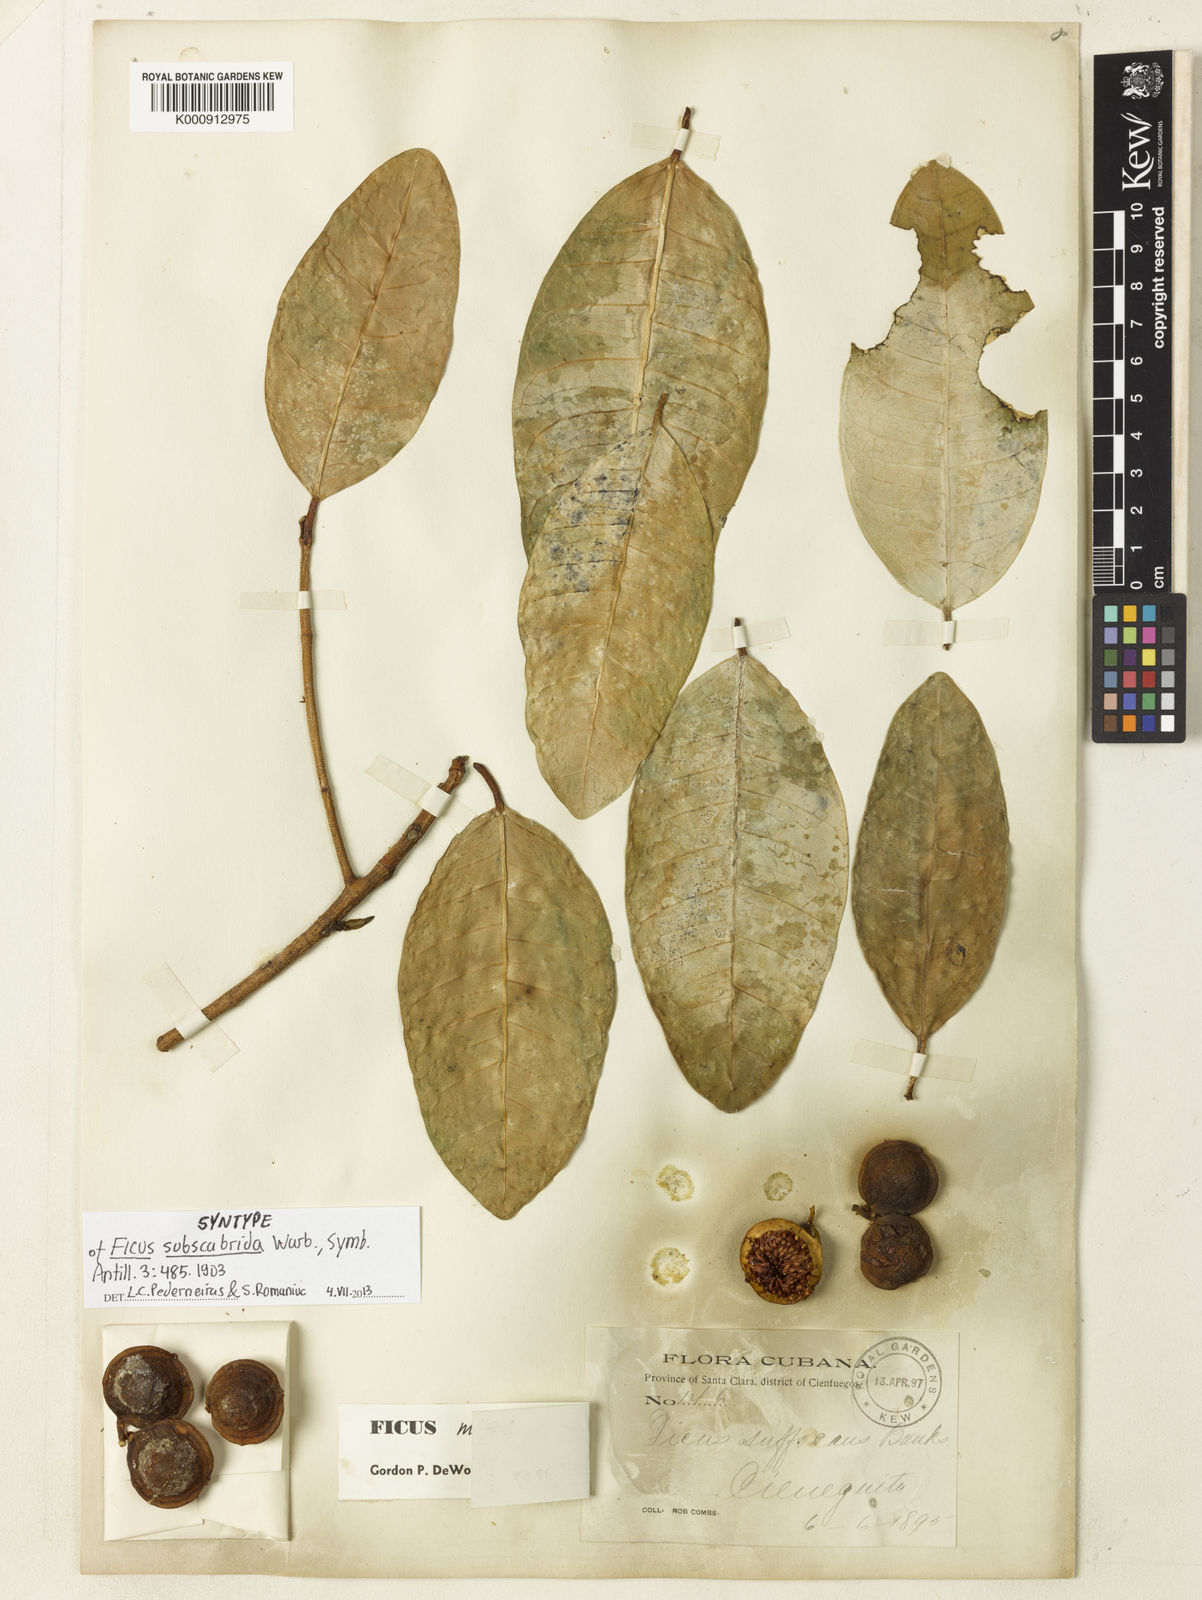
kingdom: Plantae
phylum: Tracheophyta
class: Magnoliopsida
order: Rosales
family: Moraceae
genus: Ficus
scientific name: Ficus maxima
